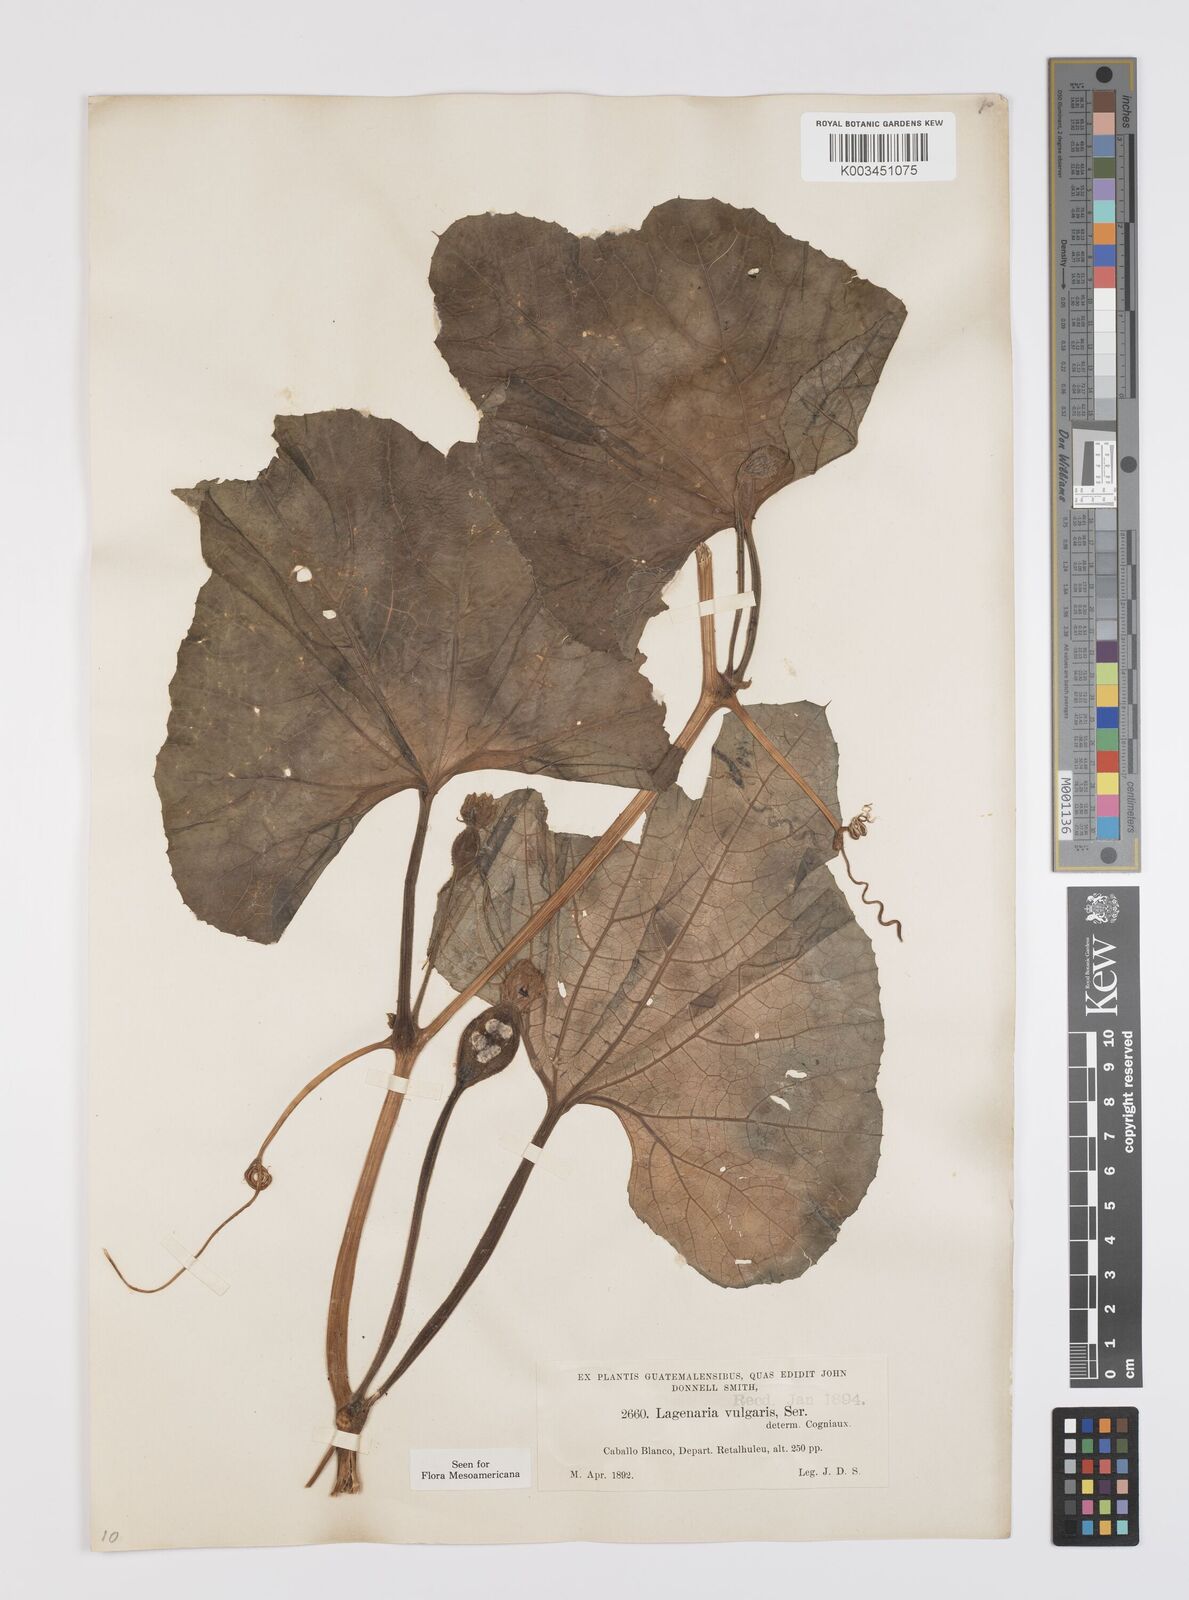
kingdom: Plantae
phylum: Tracheophyta
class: Magnoliopsida
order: Cucurbitales
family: Cucurbitaceae
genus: Lagenaria
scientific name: Lagenaria siceraria
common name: Bottle gourd
